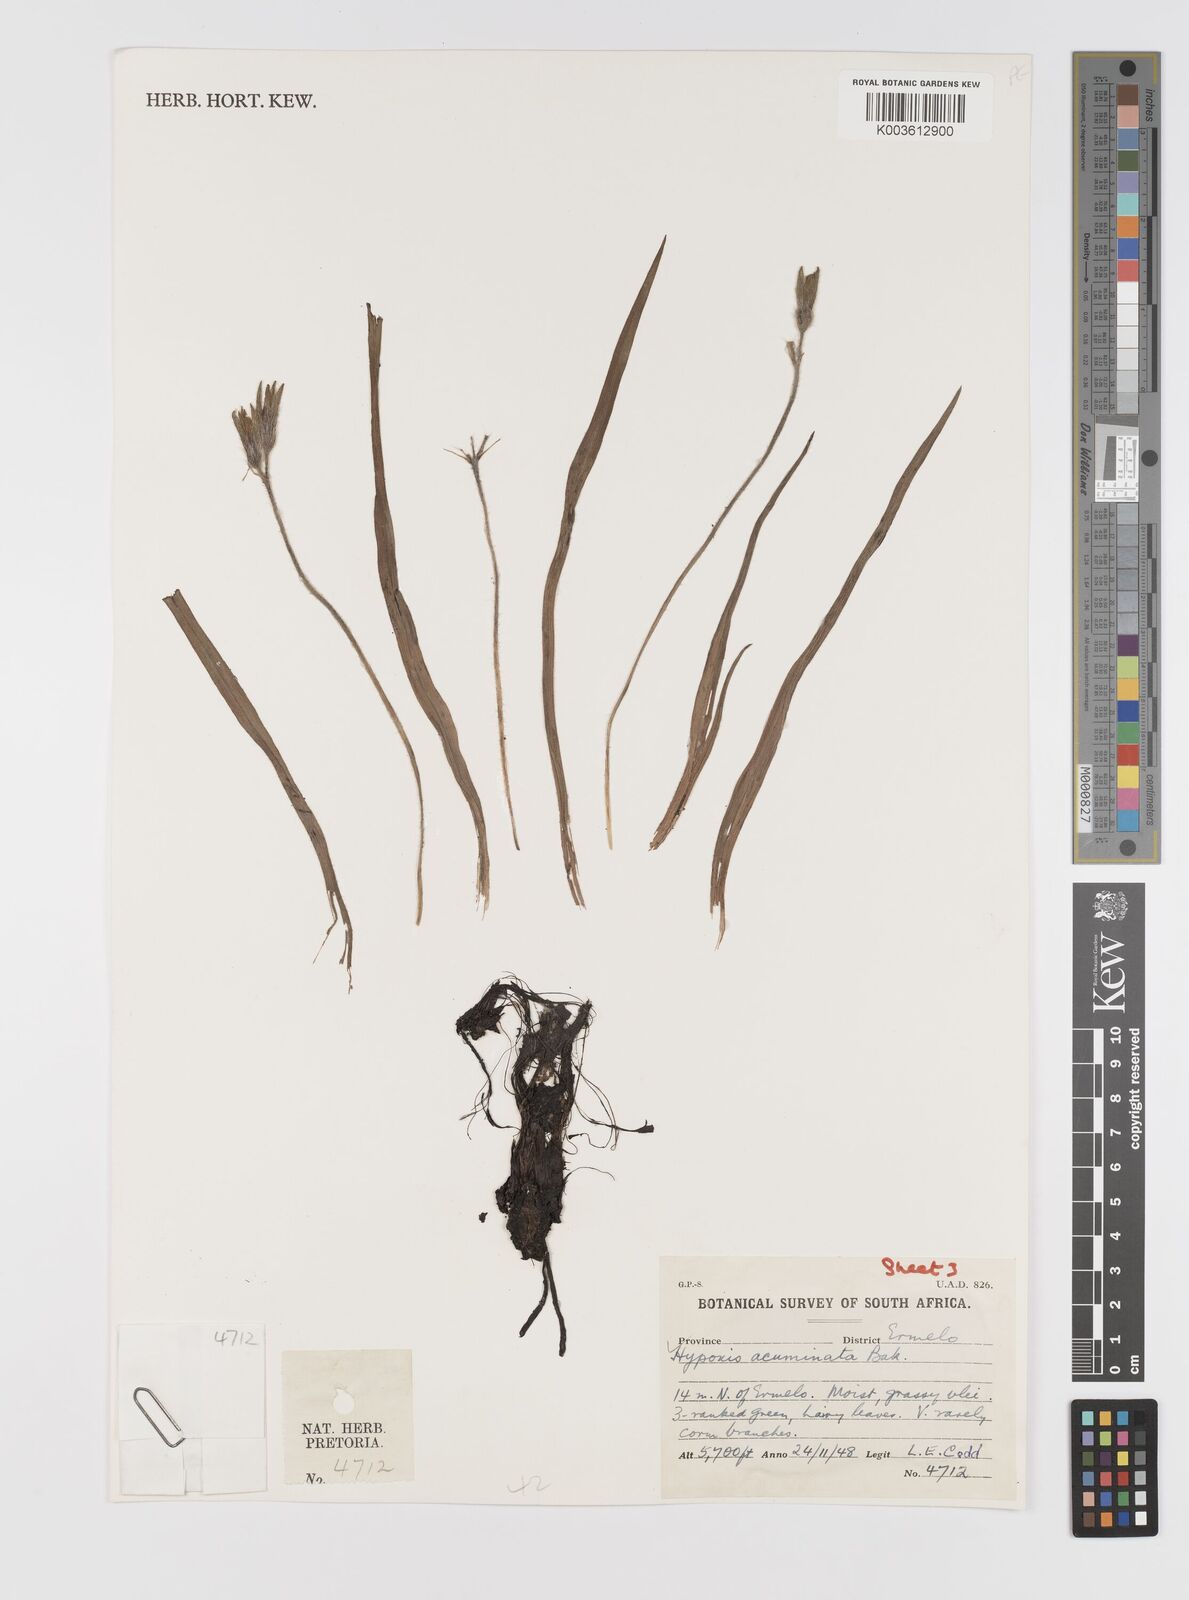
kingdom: Plantae
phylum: Tracheophyta
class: Liliopsida
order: Asparagales
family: Hypoxidaceae
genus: Hypoxis
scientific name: Hypoxis acuminata
